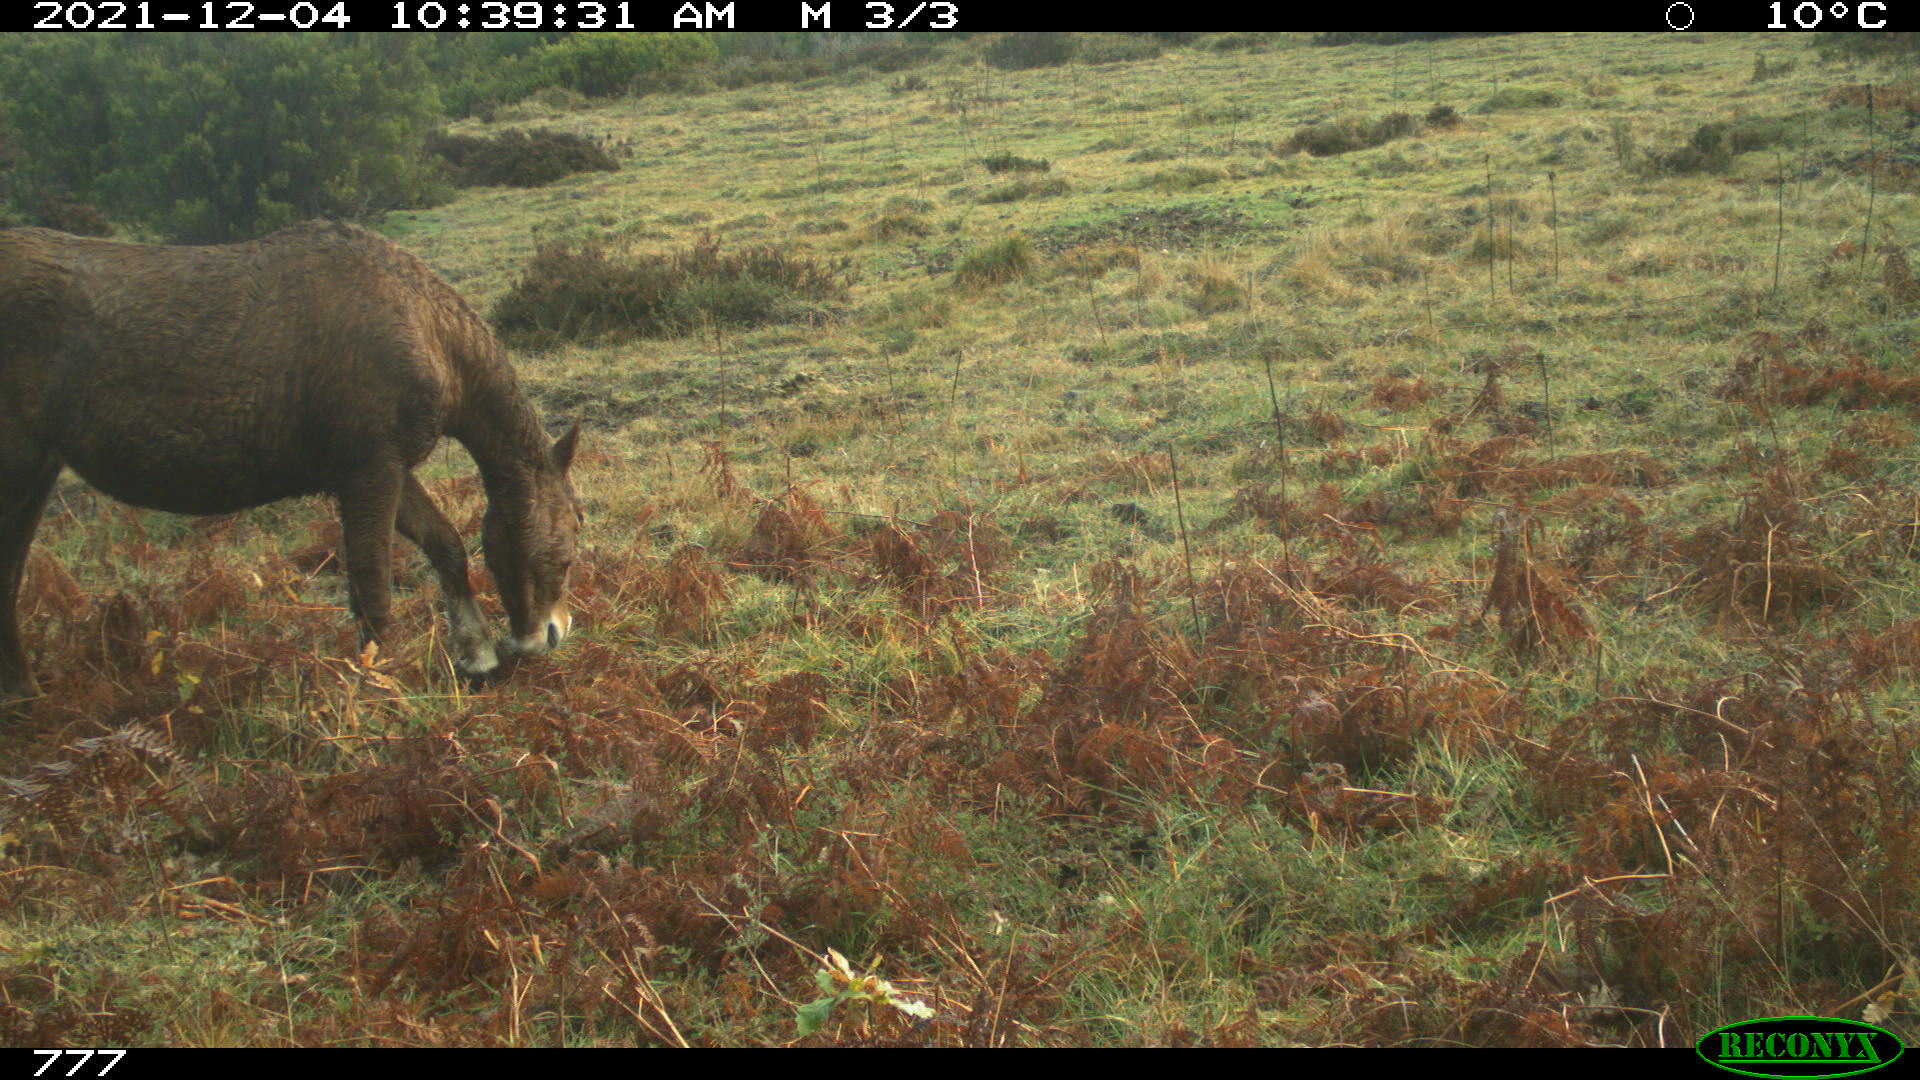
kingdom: Animalia
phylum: Chordata
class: Mammalia
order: Perissodactyla
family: Equidae
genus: Equus
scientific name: Equus caballus
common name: Horse
